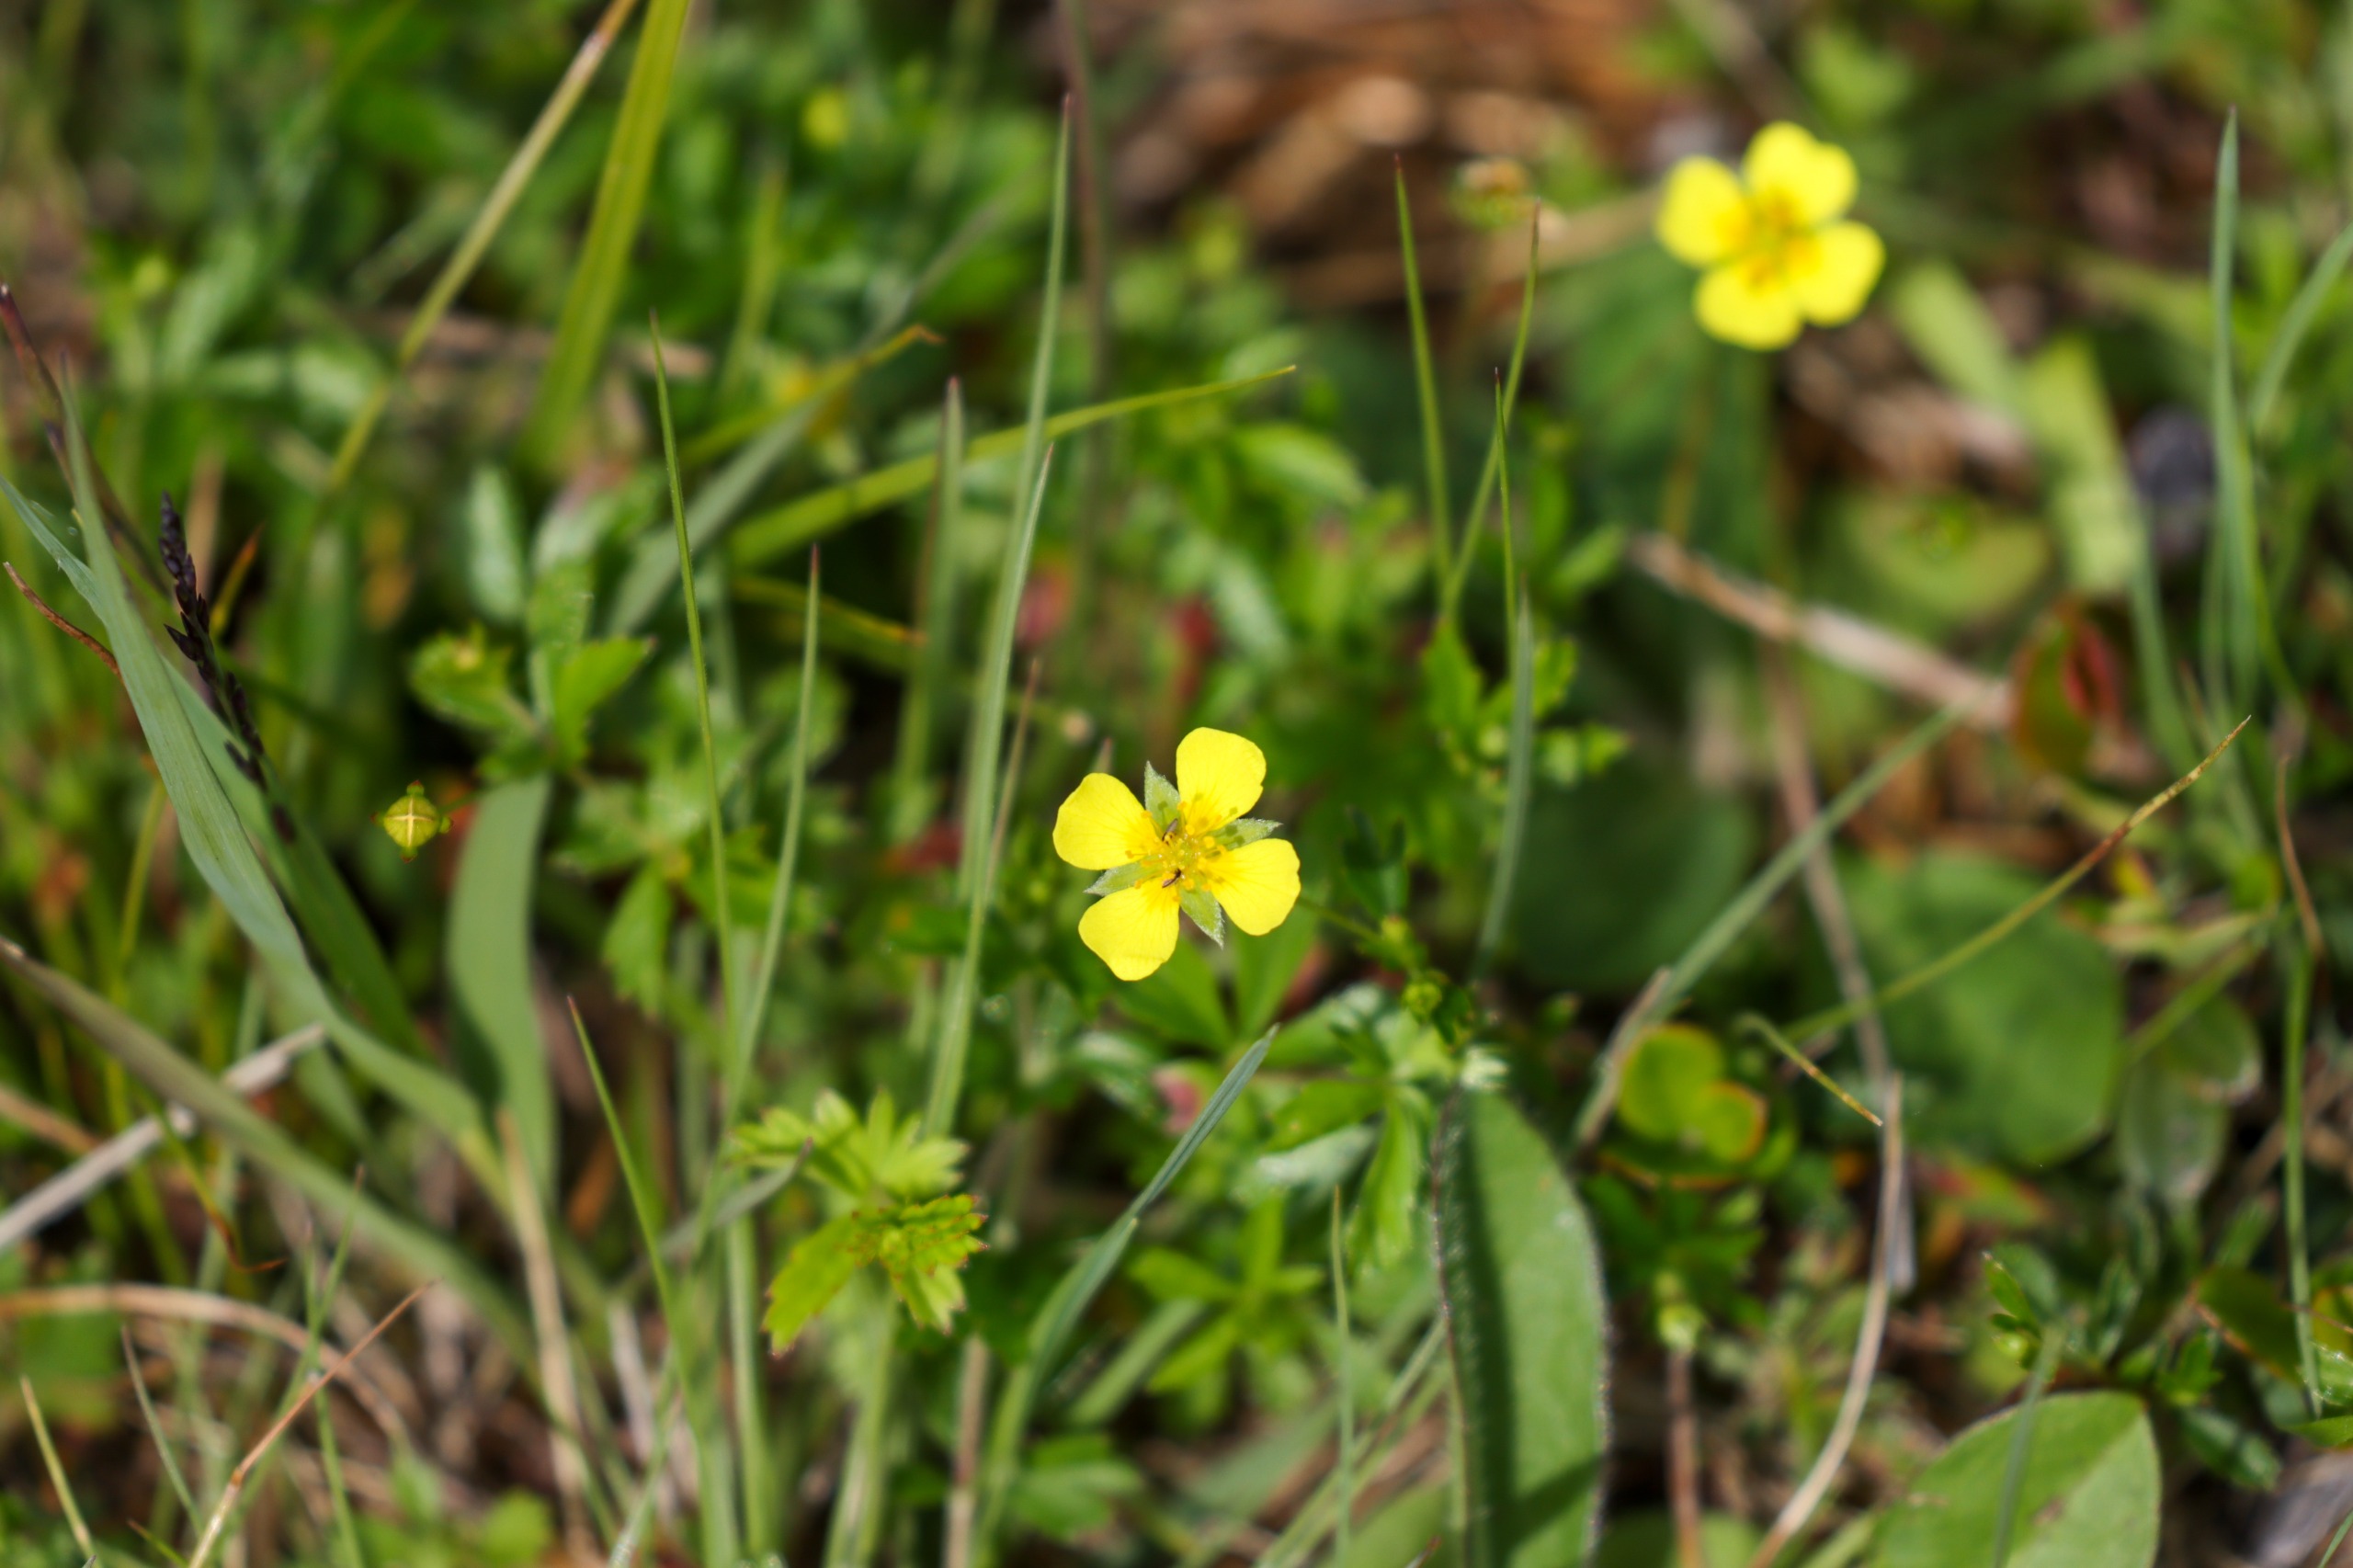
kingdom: Plantae
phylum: Tracheophyta
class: Magnoliopsida
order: Rosales
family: Rosaceae
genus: Potentilla
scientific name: Potentilla erecta
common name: Tormentil
